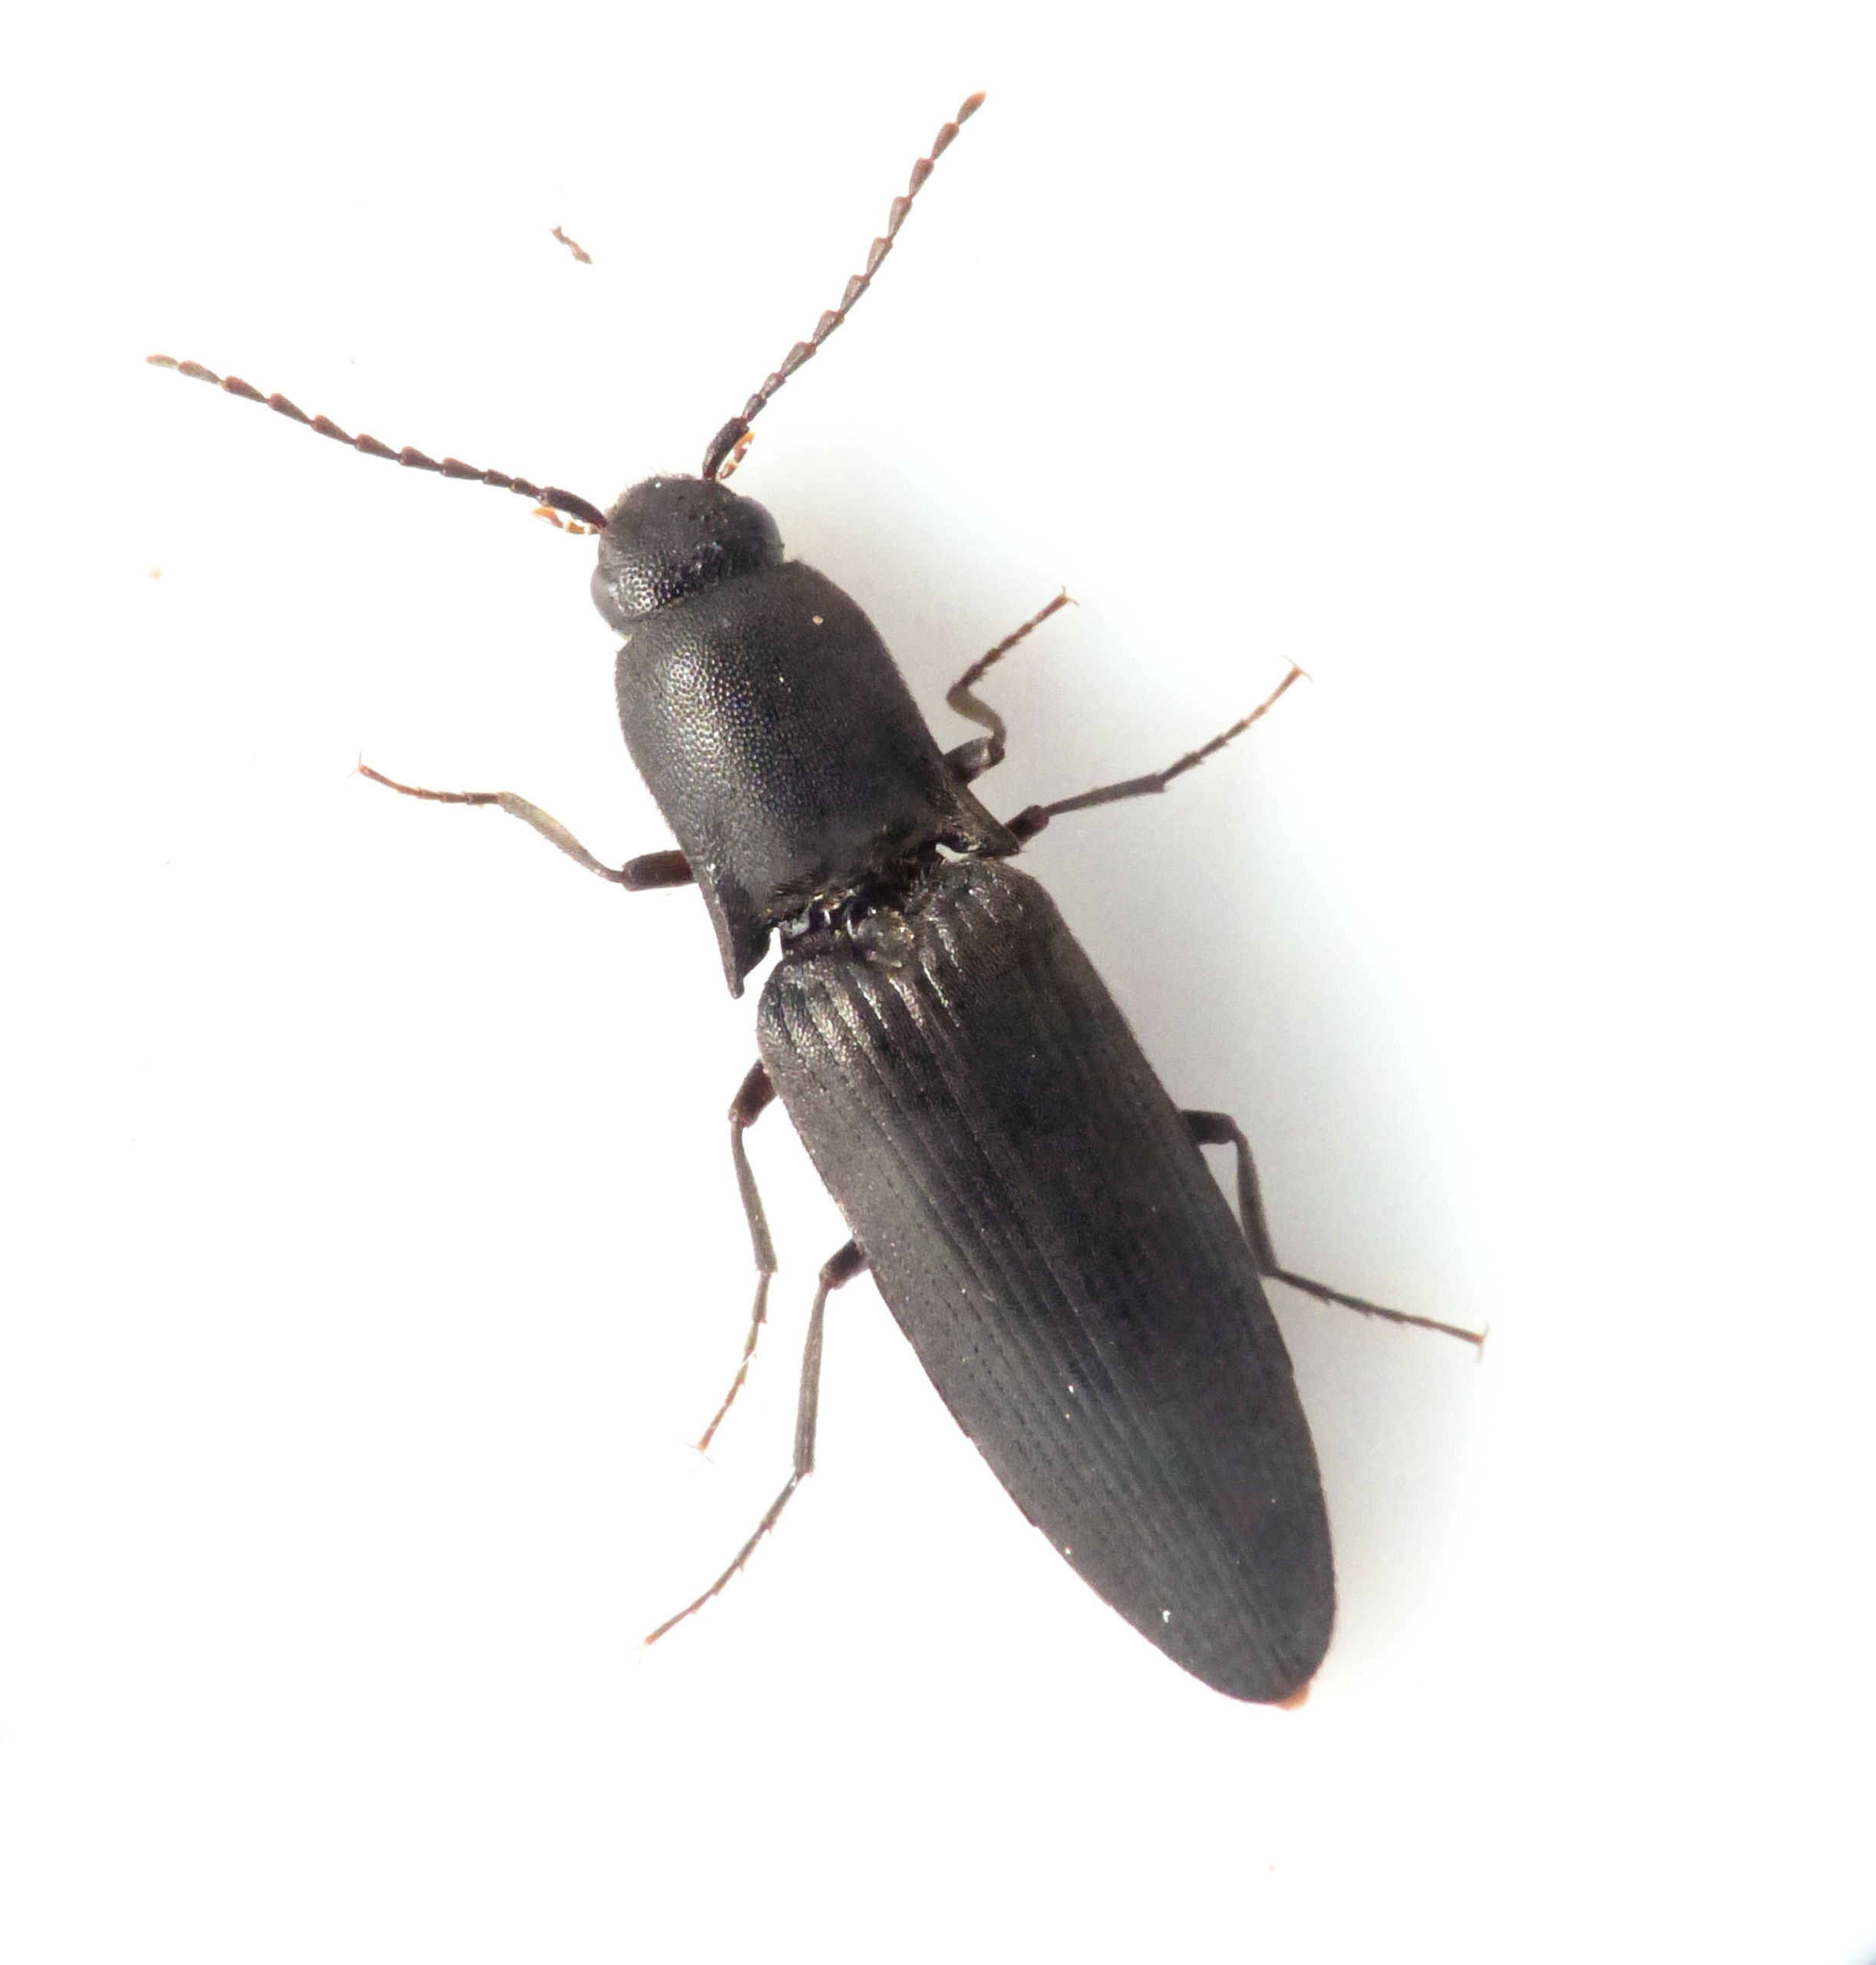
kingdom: Animalia
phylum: Arthropoda
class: Insecta
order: Coleoptera
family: Elateridae
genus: Ectinus
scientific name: Ectinus aterrimus
